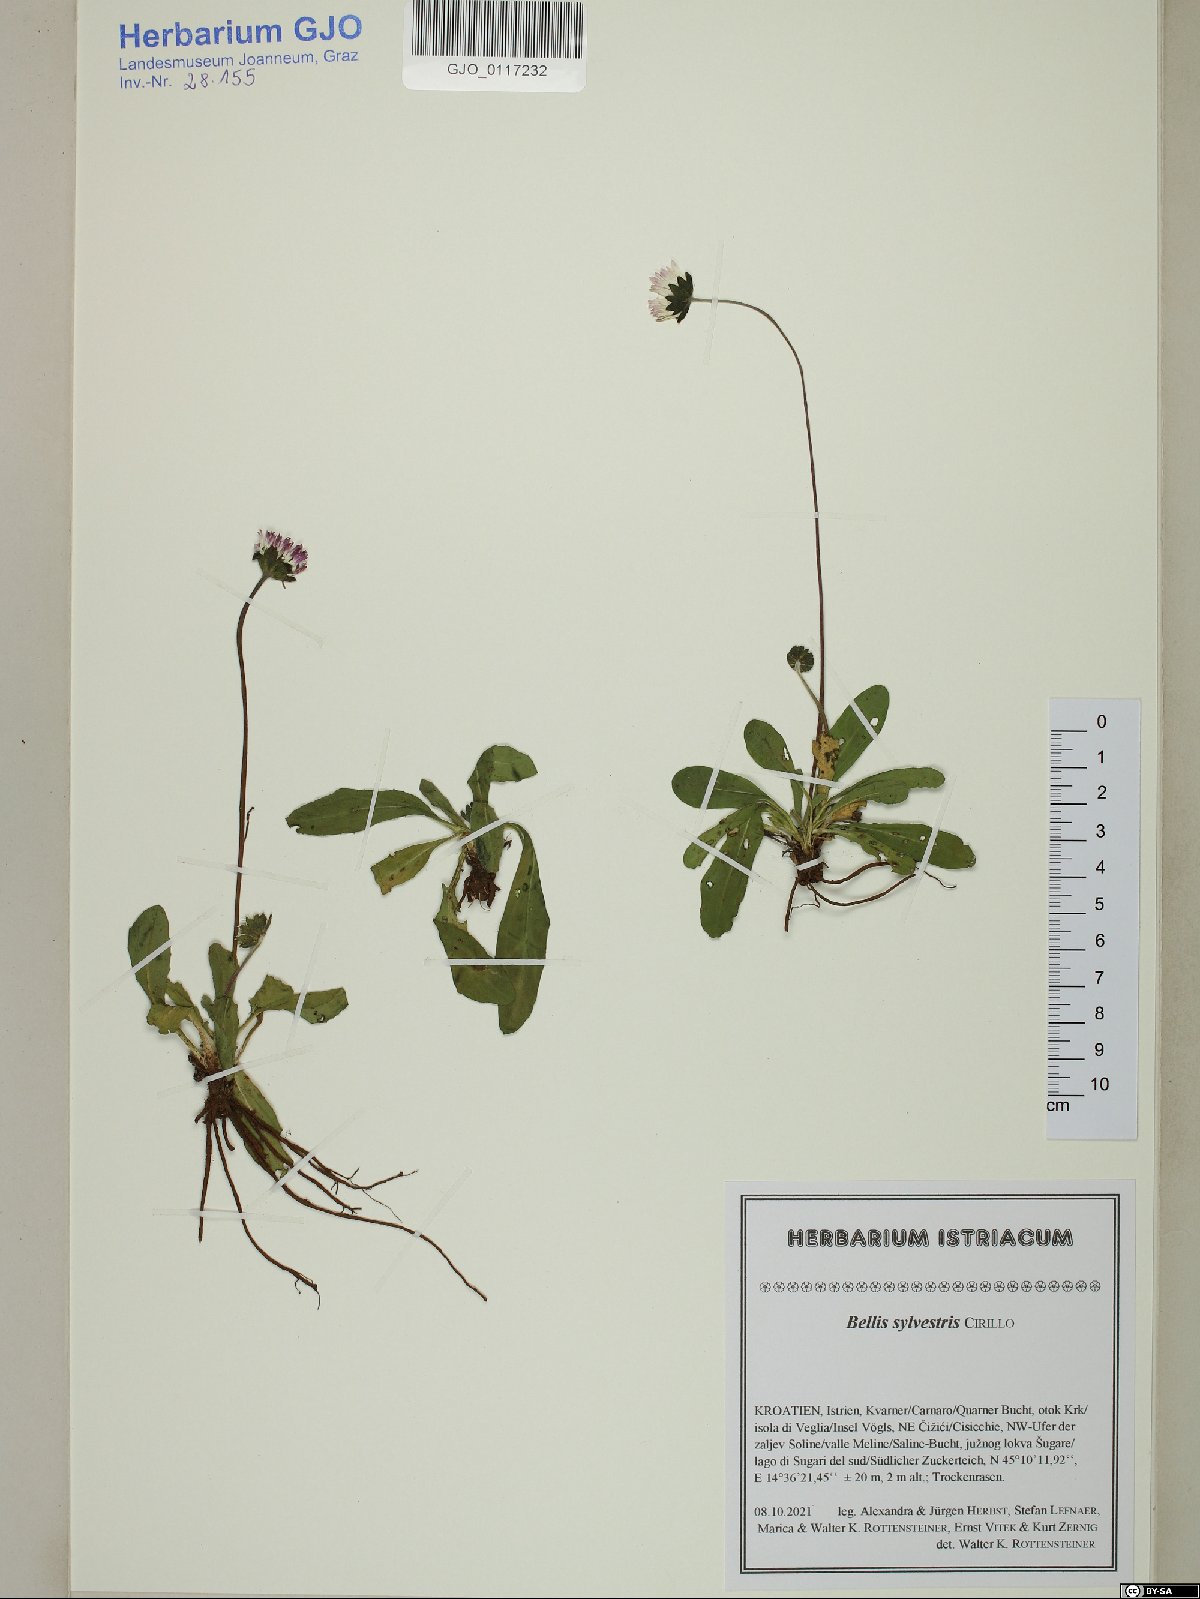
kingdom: Plantae
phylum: Tracheophyta
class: Magnoliopsida
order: Asterales
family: Asteraceae
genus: Bellis
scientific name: Bellis sylvestris
